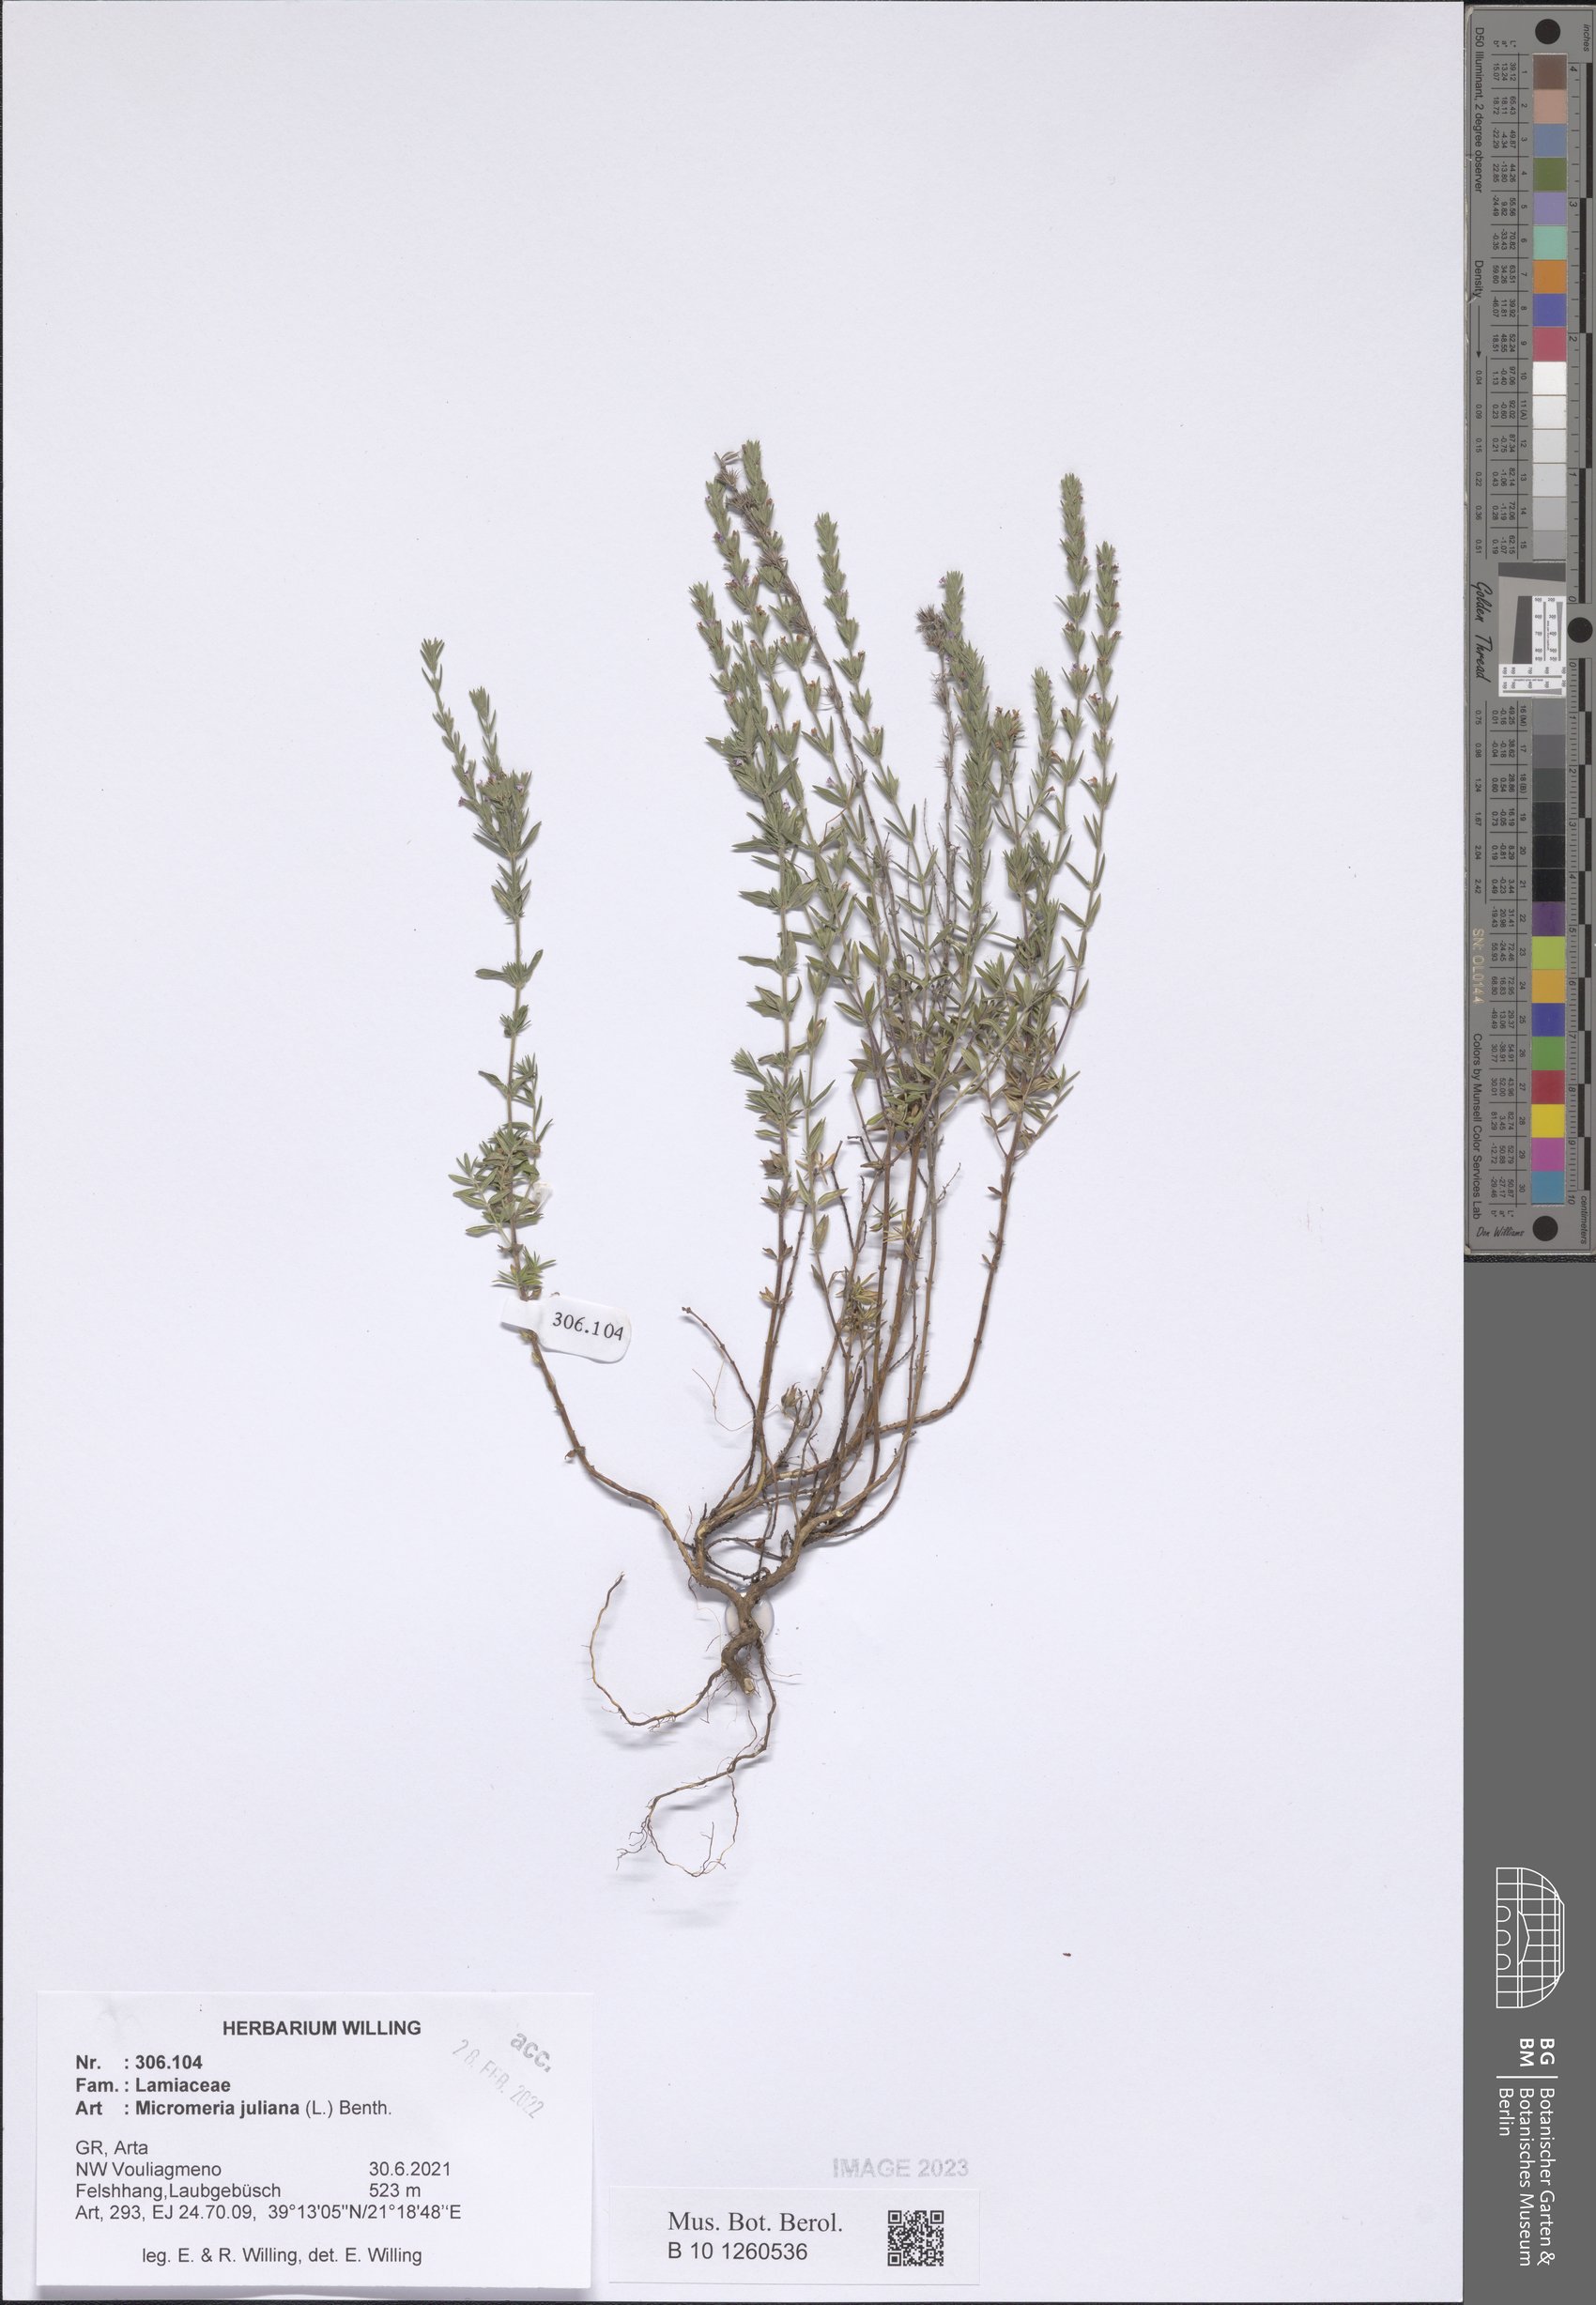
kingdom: Plantae
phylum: Tracheophyta
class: Magnoliopsida
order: Lamiales
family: Lamiaceae
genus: Micromeria
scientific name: Micromeria juliana
